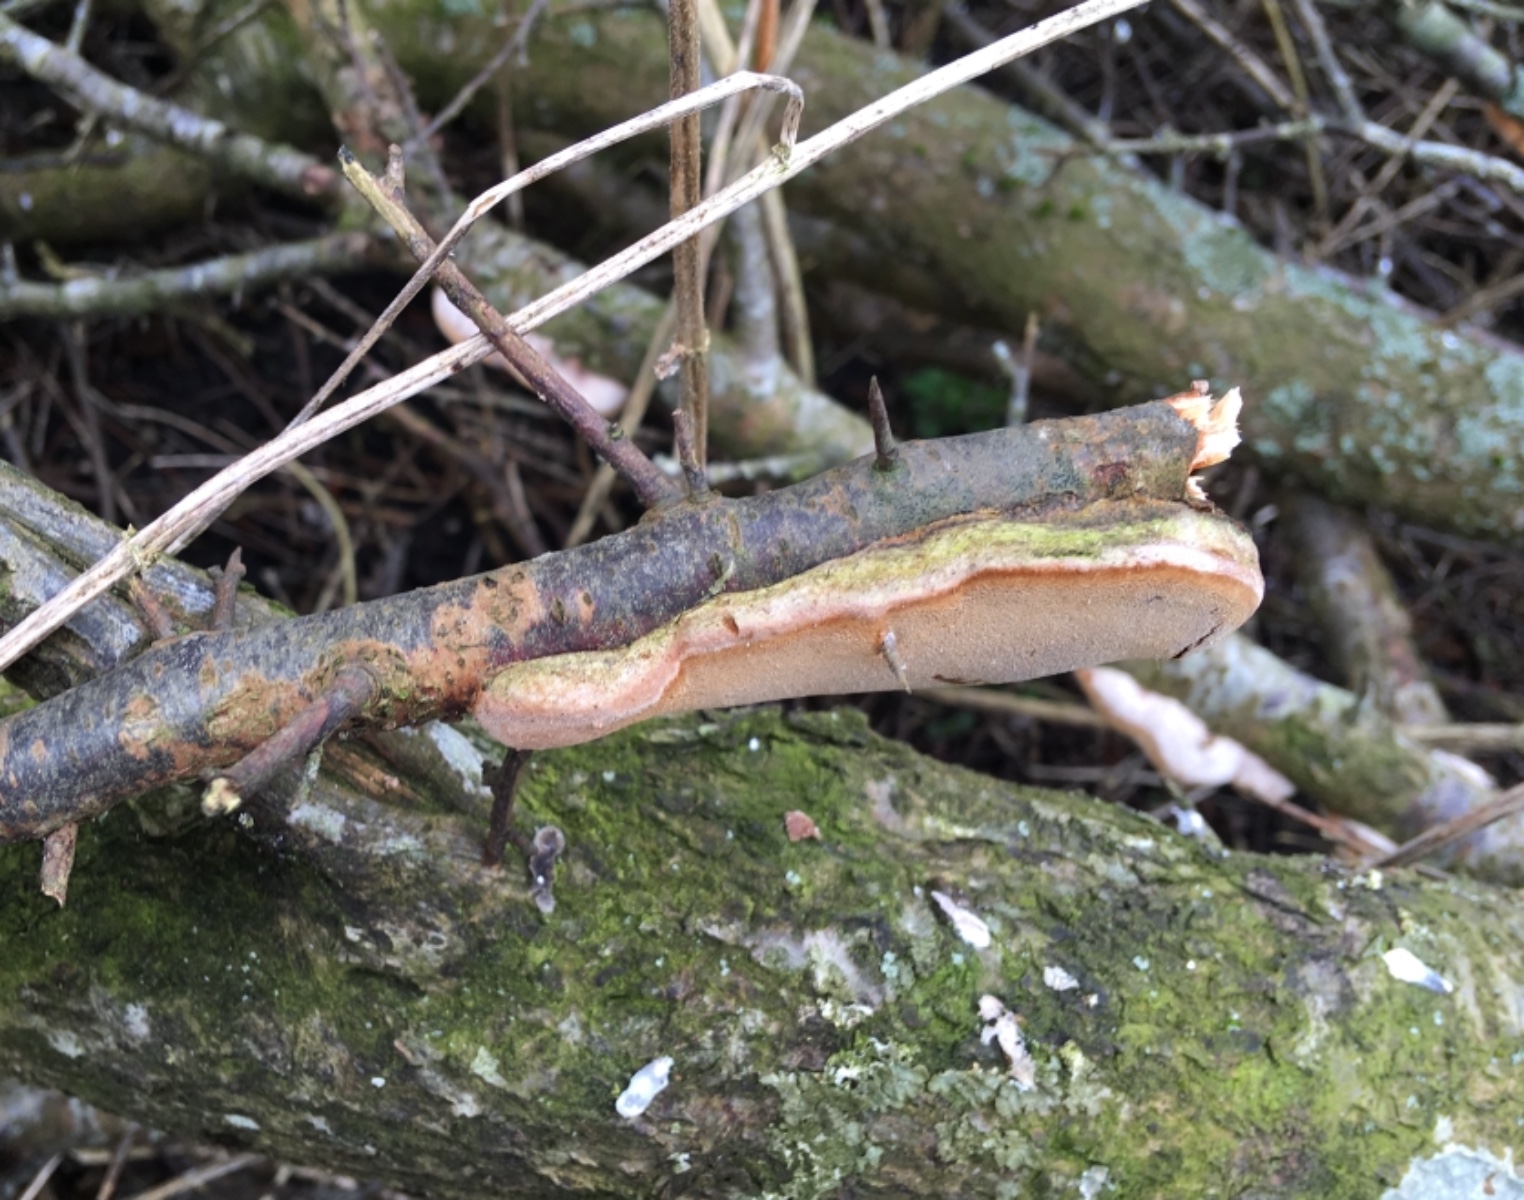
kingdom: Fungi
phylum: Basidiomycota
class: Agaricomycetes
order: Hymenochaetales
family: Hymenochaetaceae
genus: Phellinus
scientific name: Phellinus pomaceus
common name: blomme-ildporesvamp
